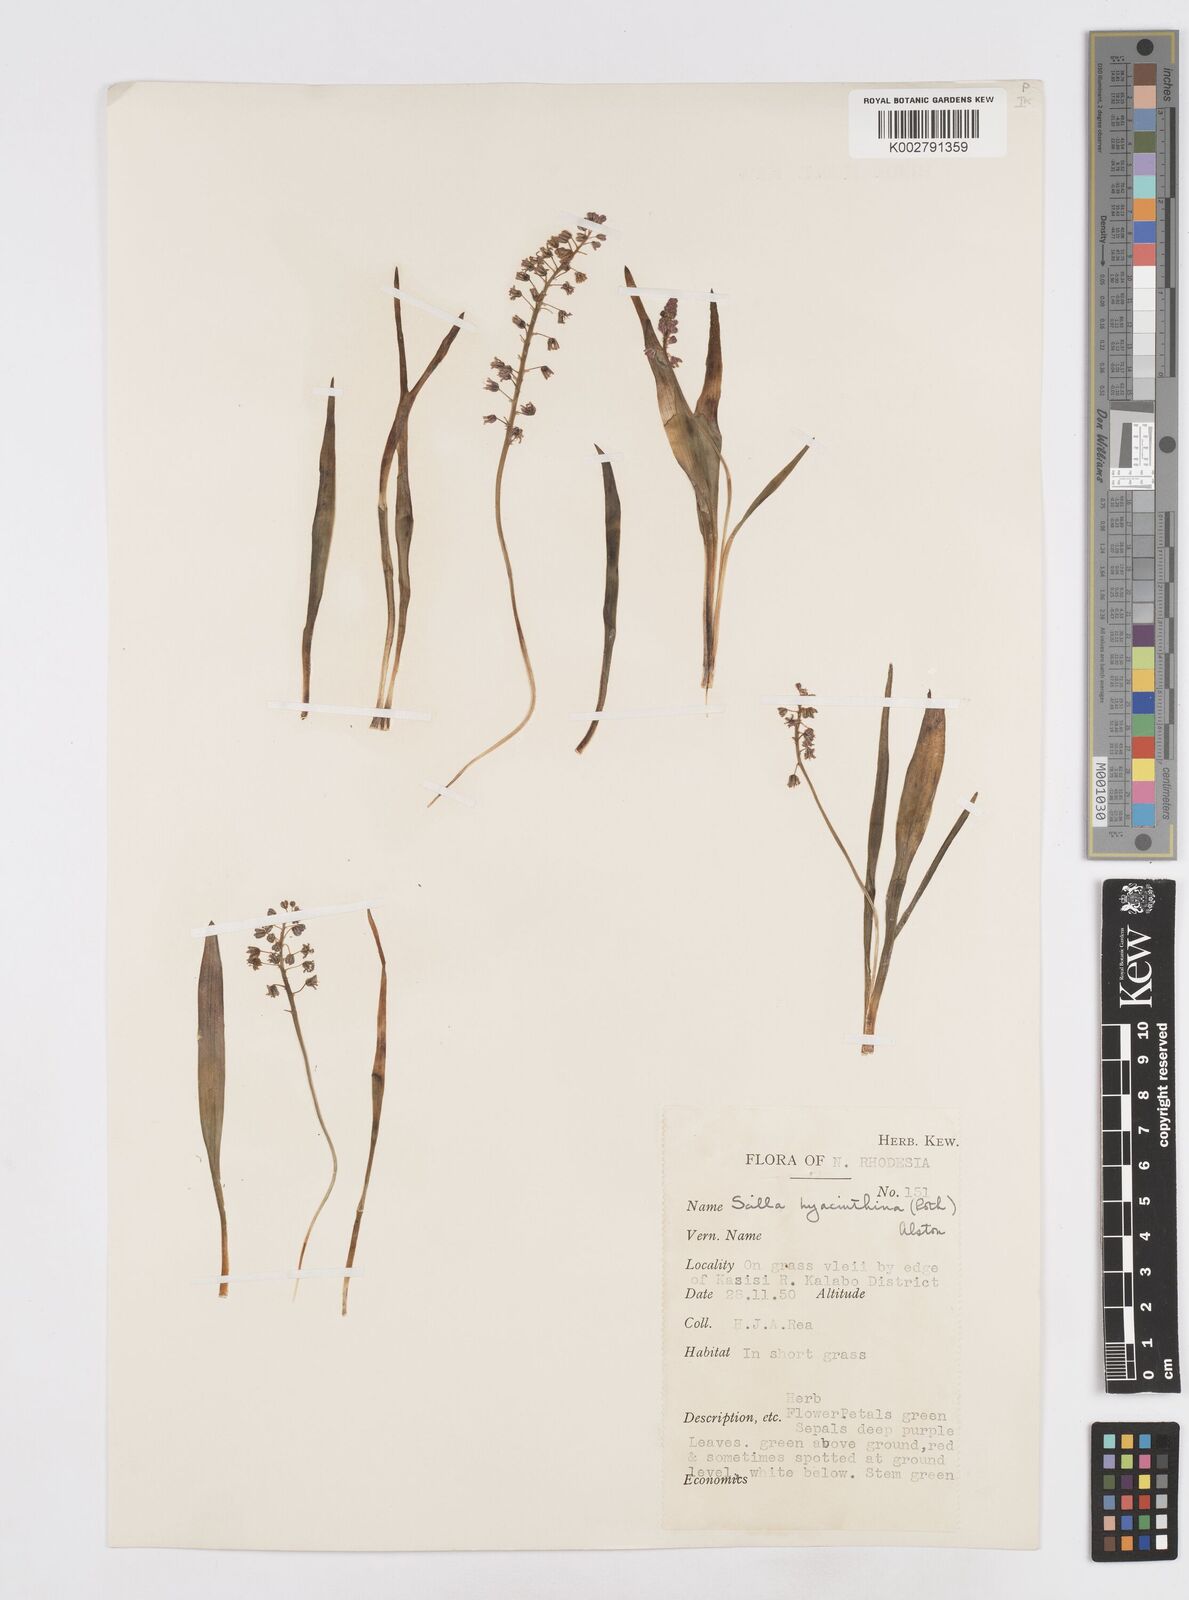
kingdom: Plantae
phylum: Tracheophyta
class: Liliopsida
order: Asparagales
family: Asparagaceae
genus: Ledebouria
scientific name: Ledebouria revoluta
